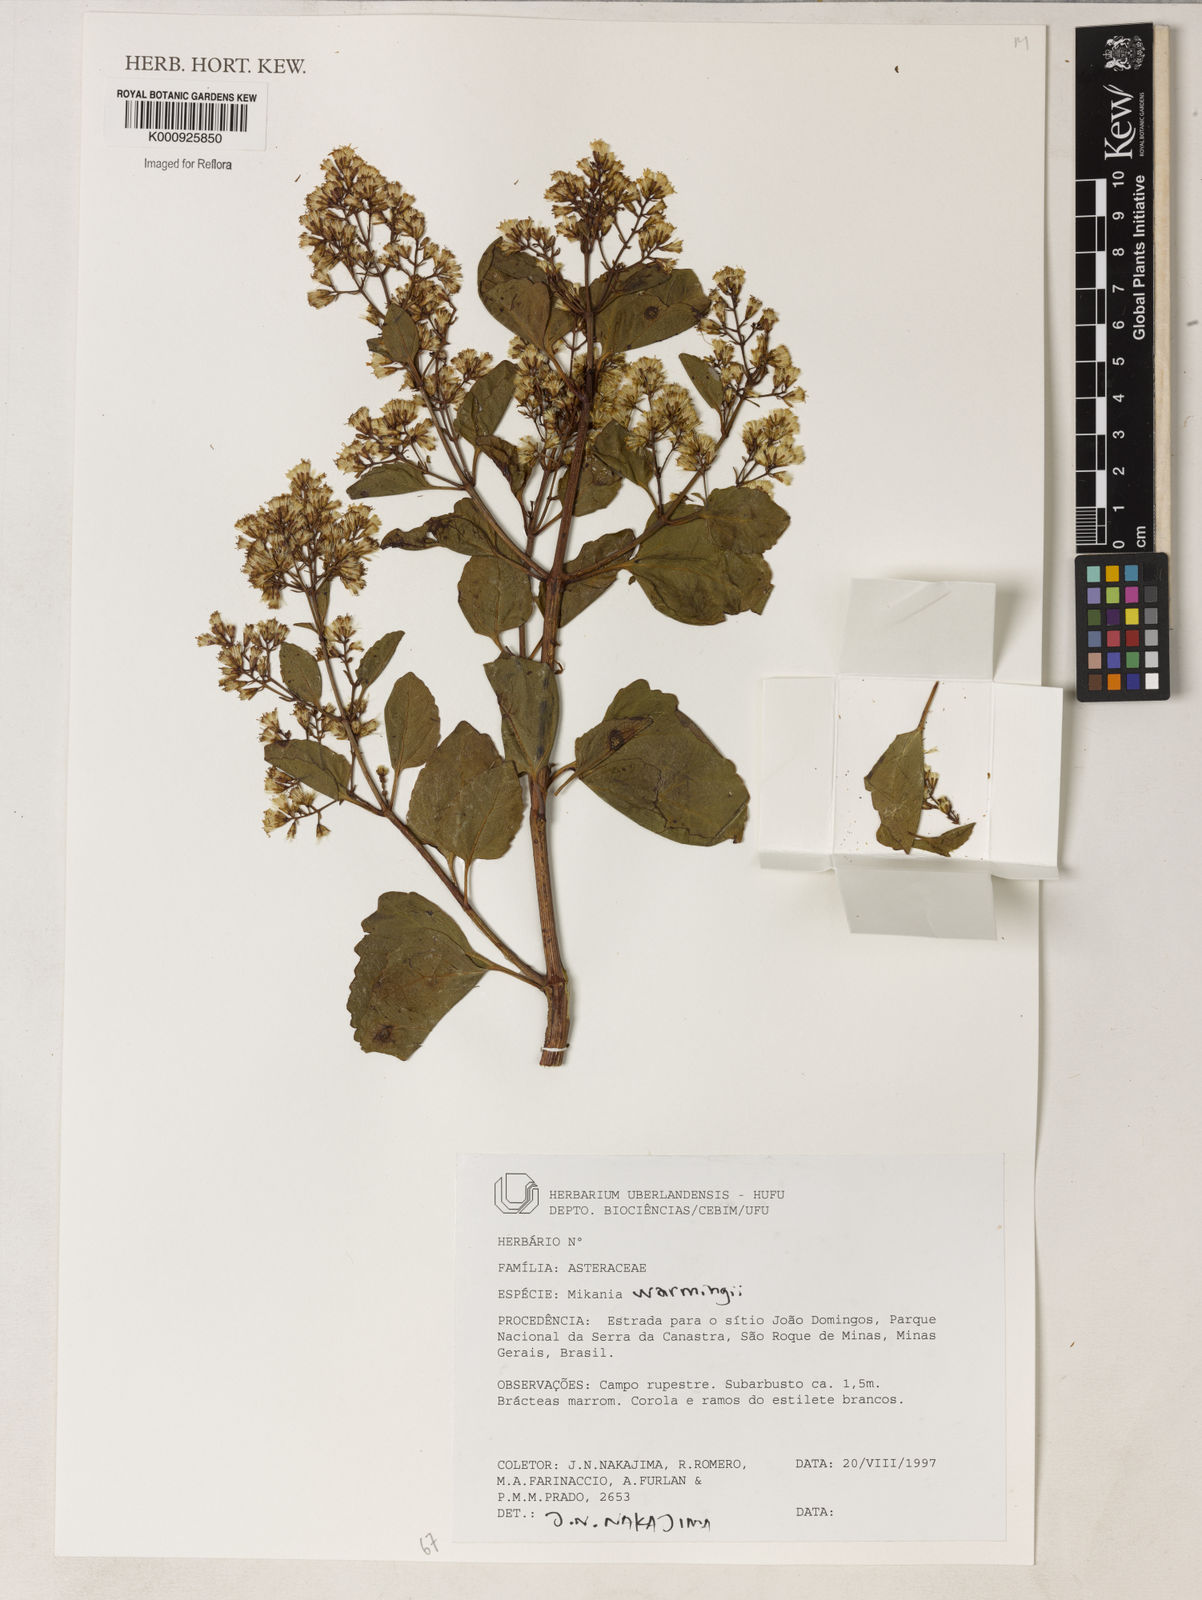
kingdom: Plantae
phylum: Tracheophyta
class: Magnoliopsida
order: Asterales
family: Asteraceae
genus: Mikania
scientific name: Mikania
